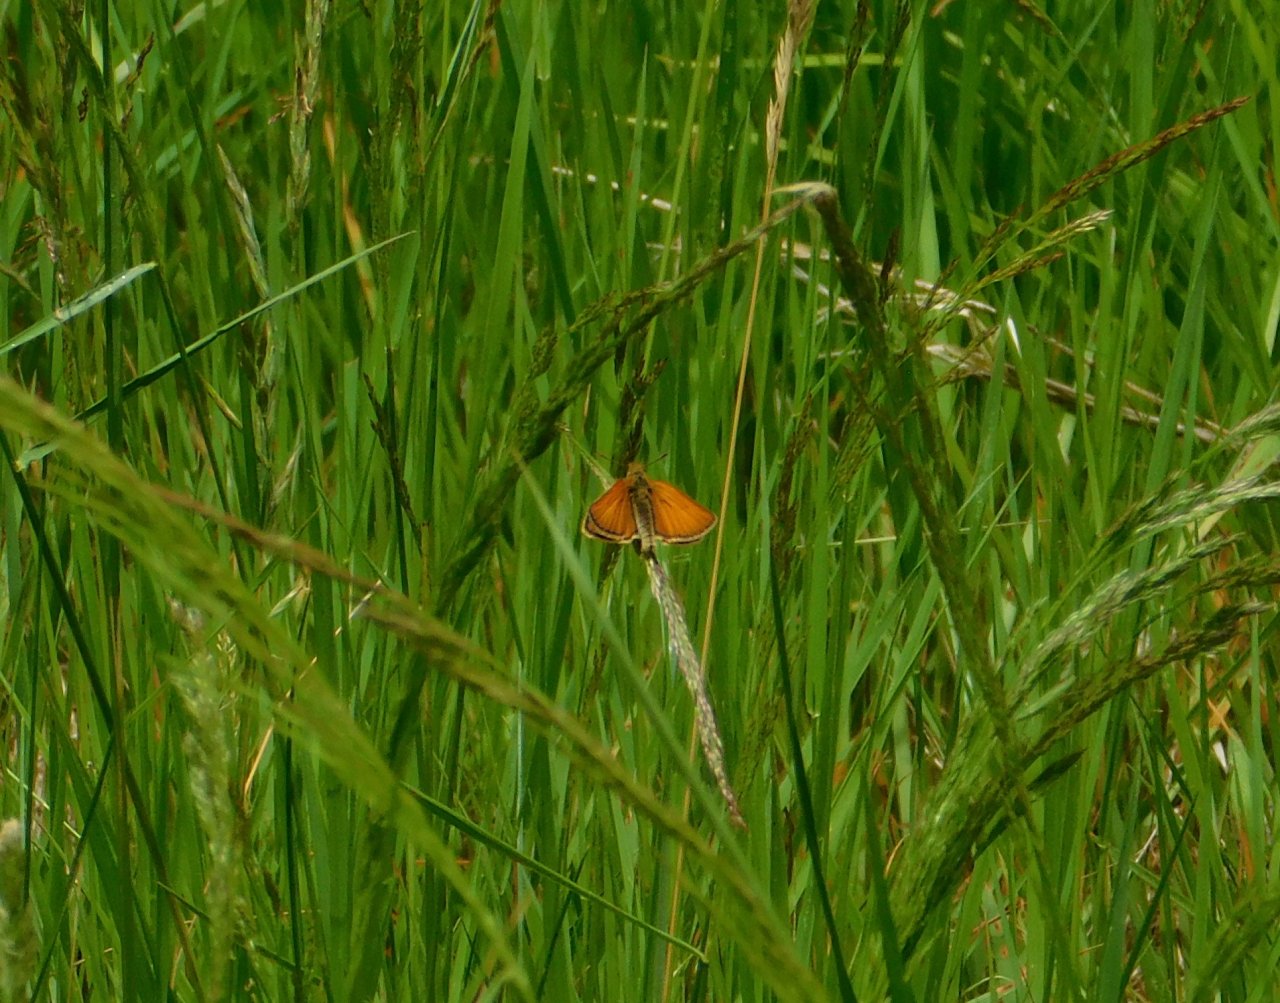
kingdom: Animalia
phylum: Arthropoda
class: Insecta
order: Lepidoptera
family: Hesperiidae
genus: Thymelicus
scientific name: Thymelicus lineola
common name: European Skipper
